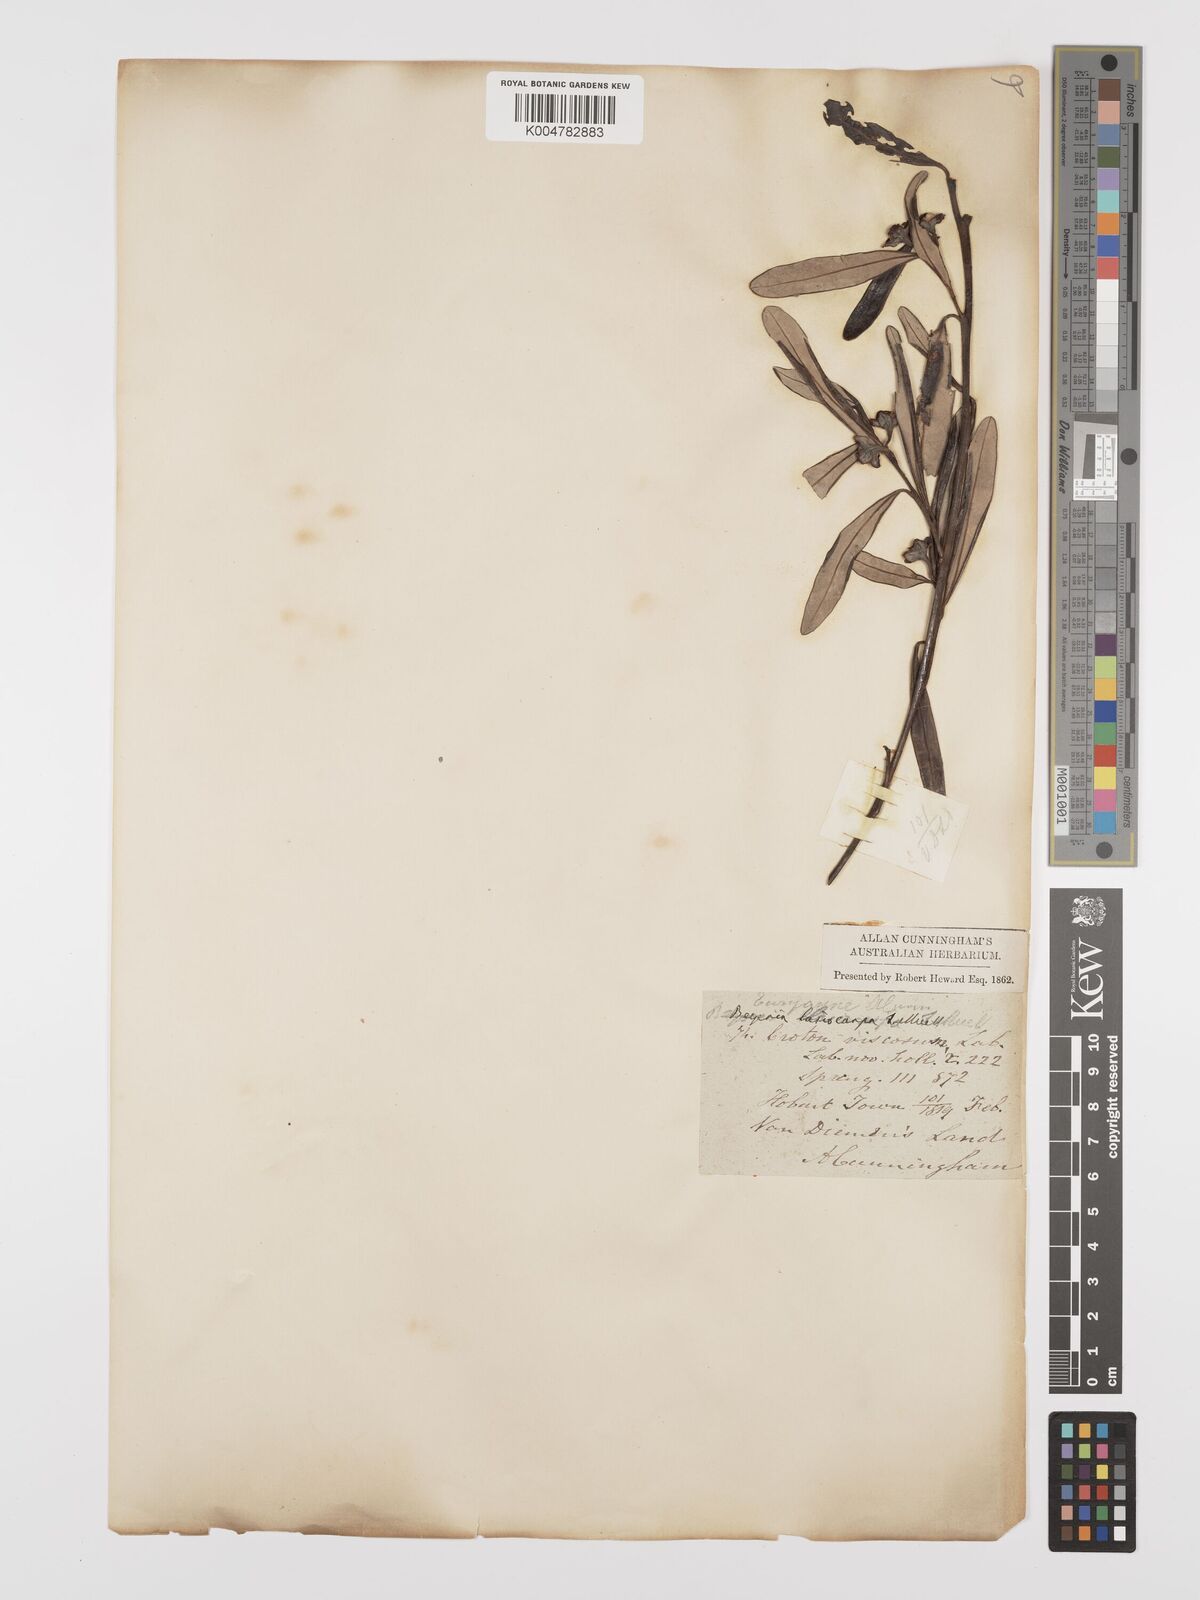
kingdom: Plantae
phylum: Tracheophyta
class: Magnoliopsida
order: Malpighiales
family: Euphorbiaceae
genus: Beyeria
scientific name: Beyeria lasiocarpa
